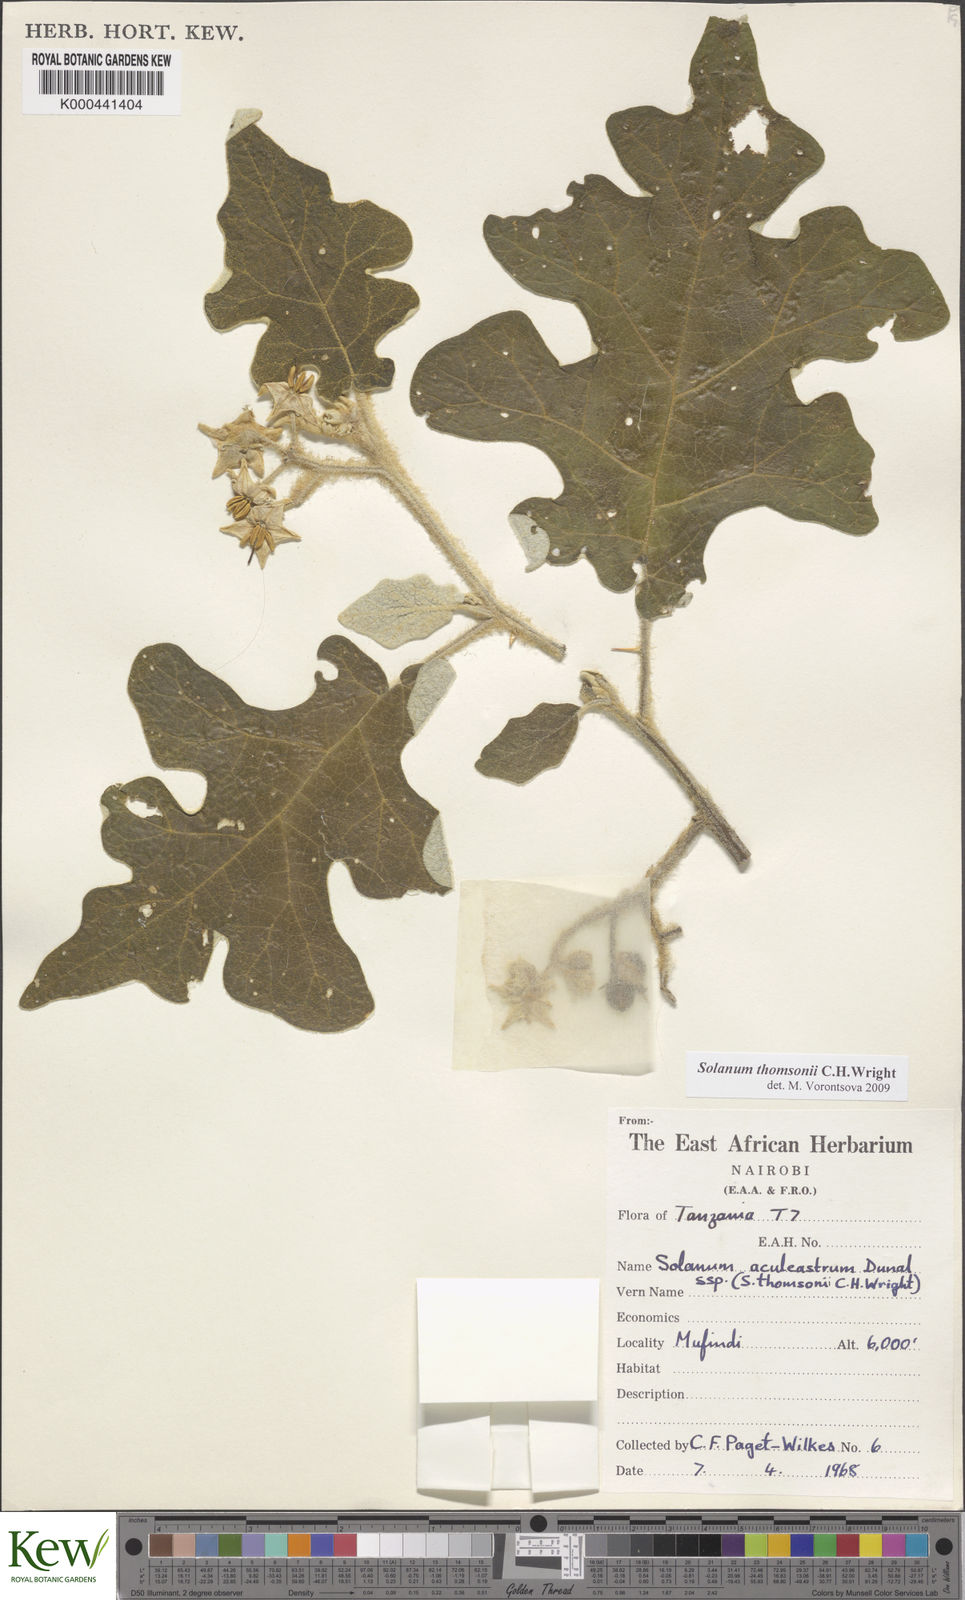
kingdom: Plantae
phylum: Tracheophyta
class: Magnoliopsida
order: Solanales
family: Solanaceae
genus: Solanum
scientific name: Solanum aculeastrum
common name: Goat bitter-apple
